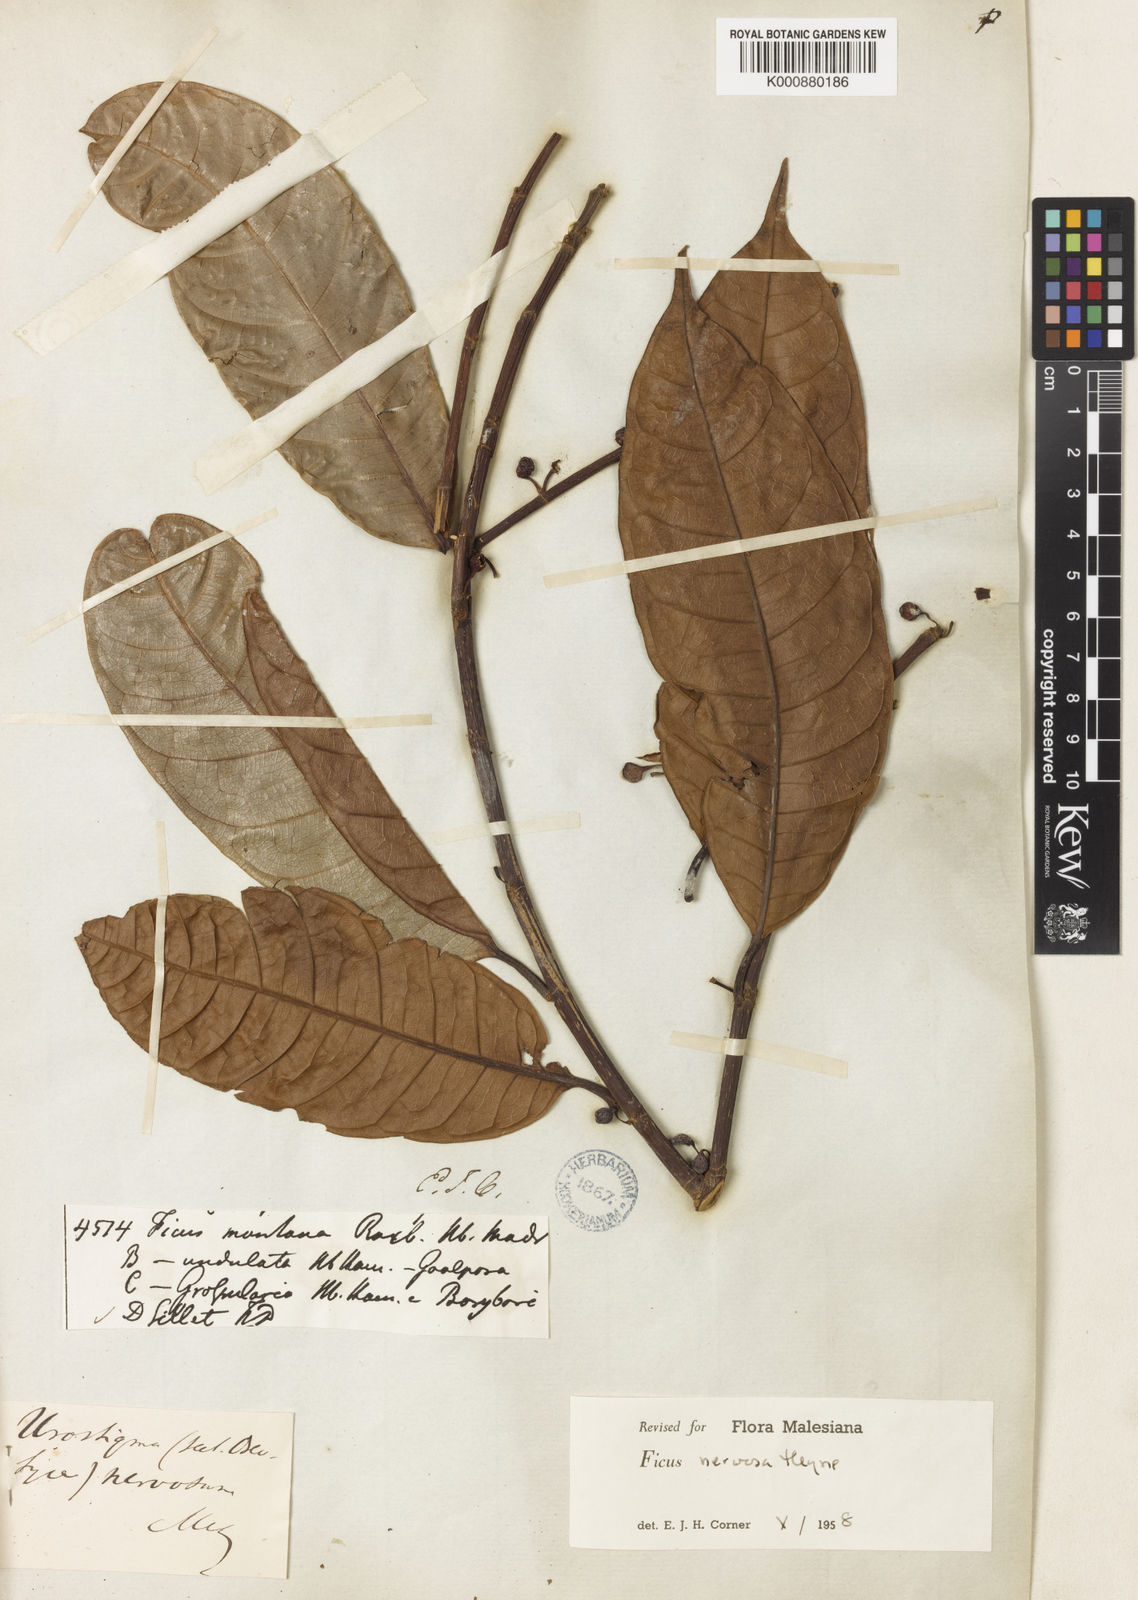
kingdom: Plantae
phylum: Tracheophyta
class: Magnoliopsida
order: Rosales
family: Moraceae
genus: Ficus
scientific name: Ficus nervosa
